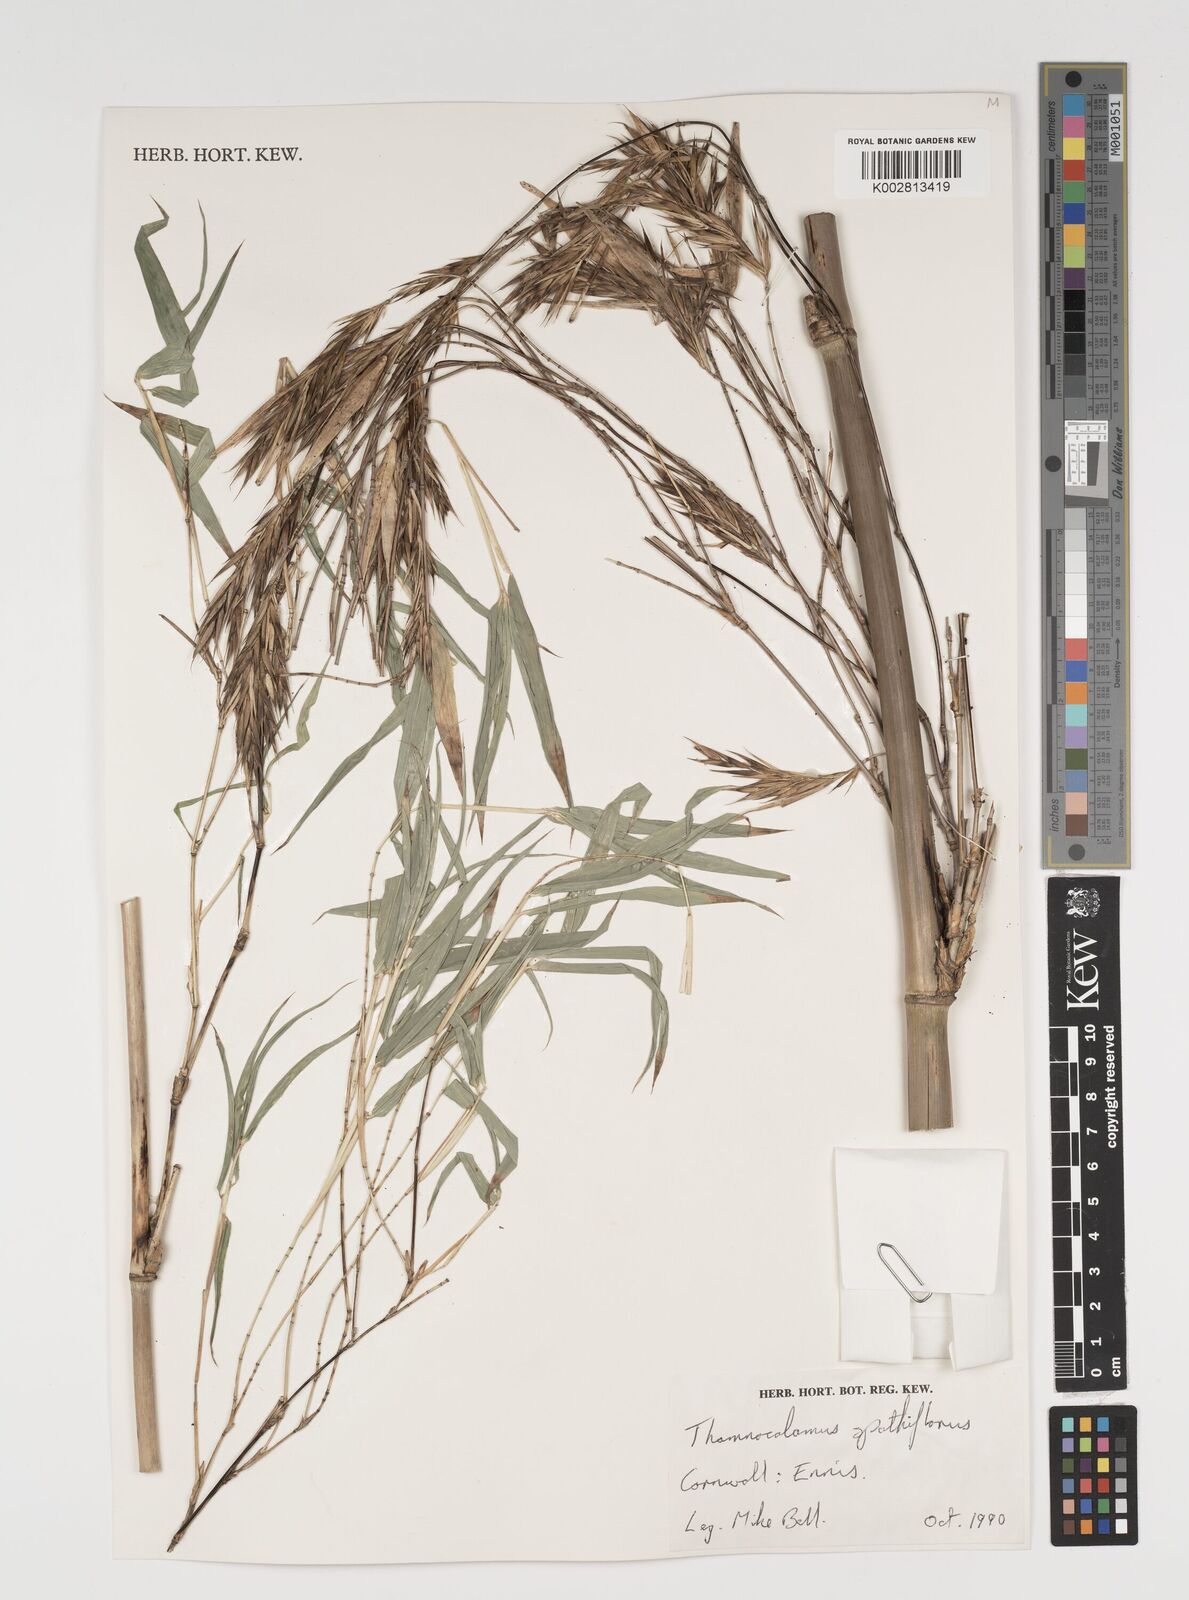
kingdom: Plantae
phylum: Tracheophyta
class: Liliopsida
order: Poales
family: Poaceae
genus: Thamnocalamus
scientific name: Thamnocalamus spathiflorus
